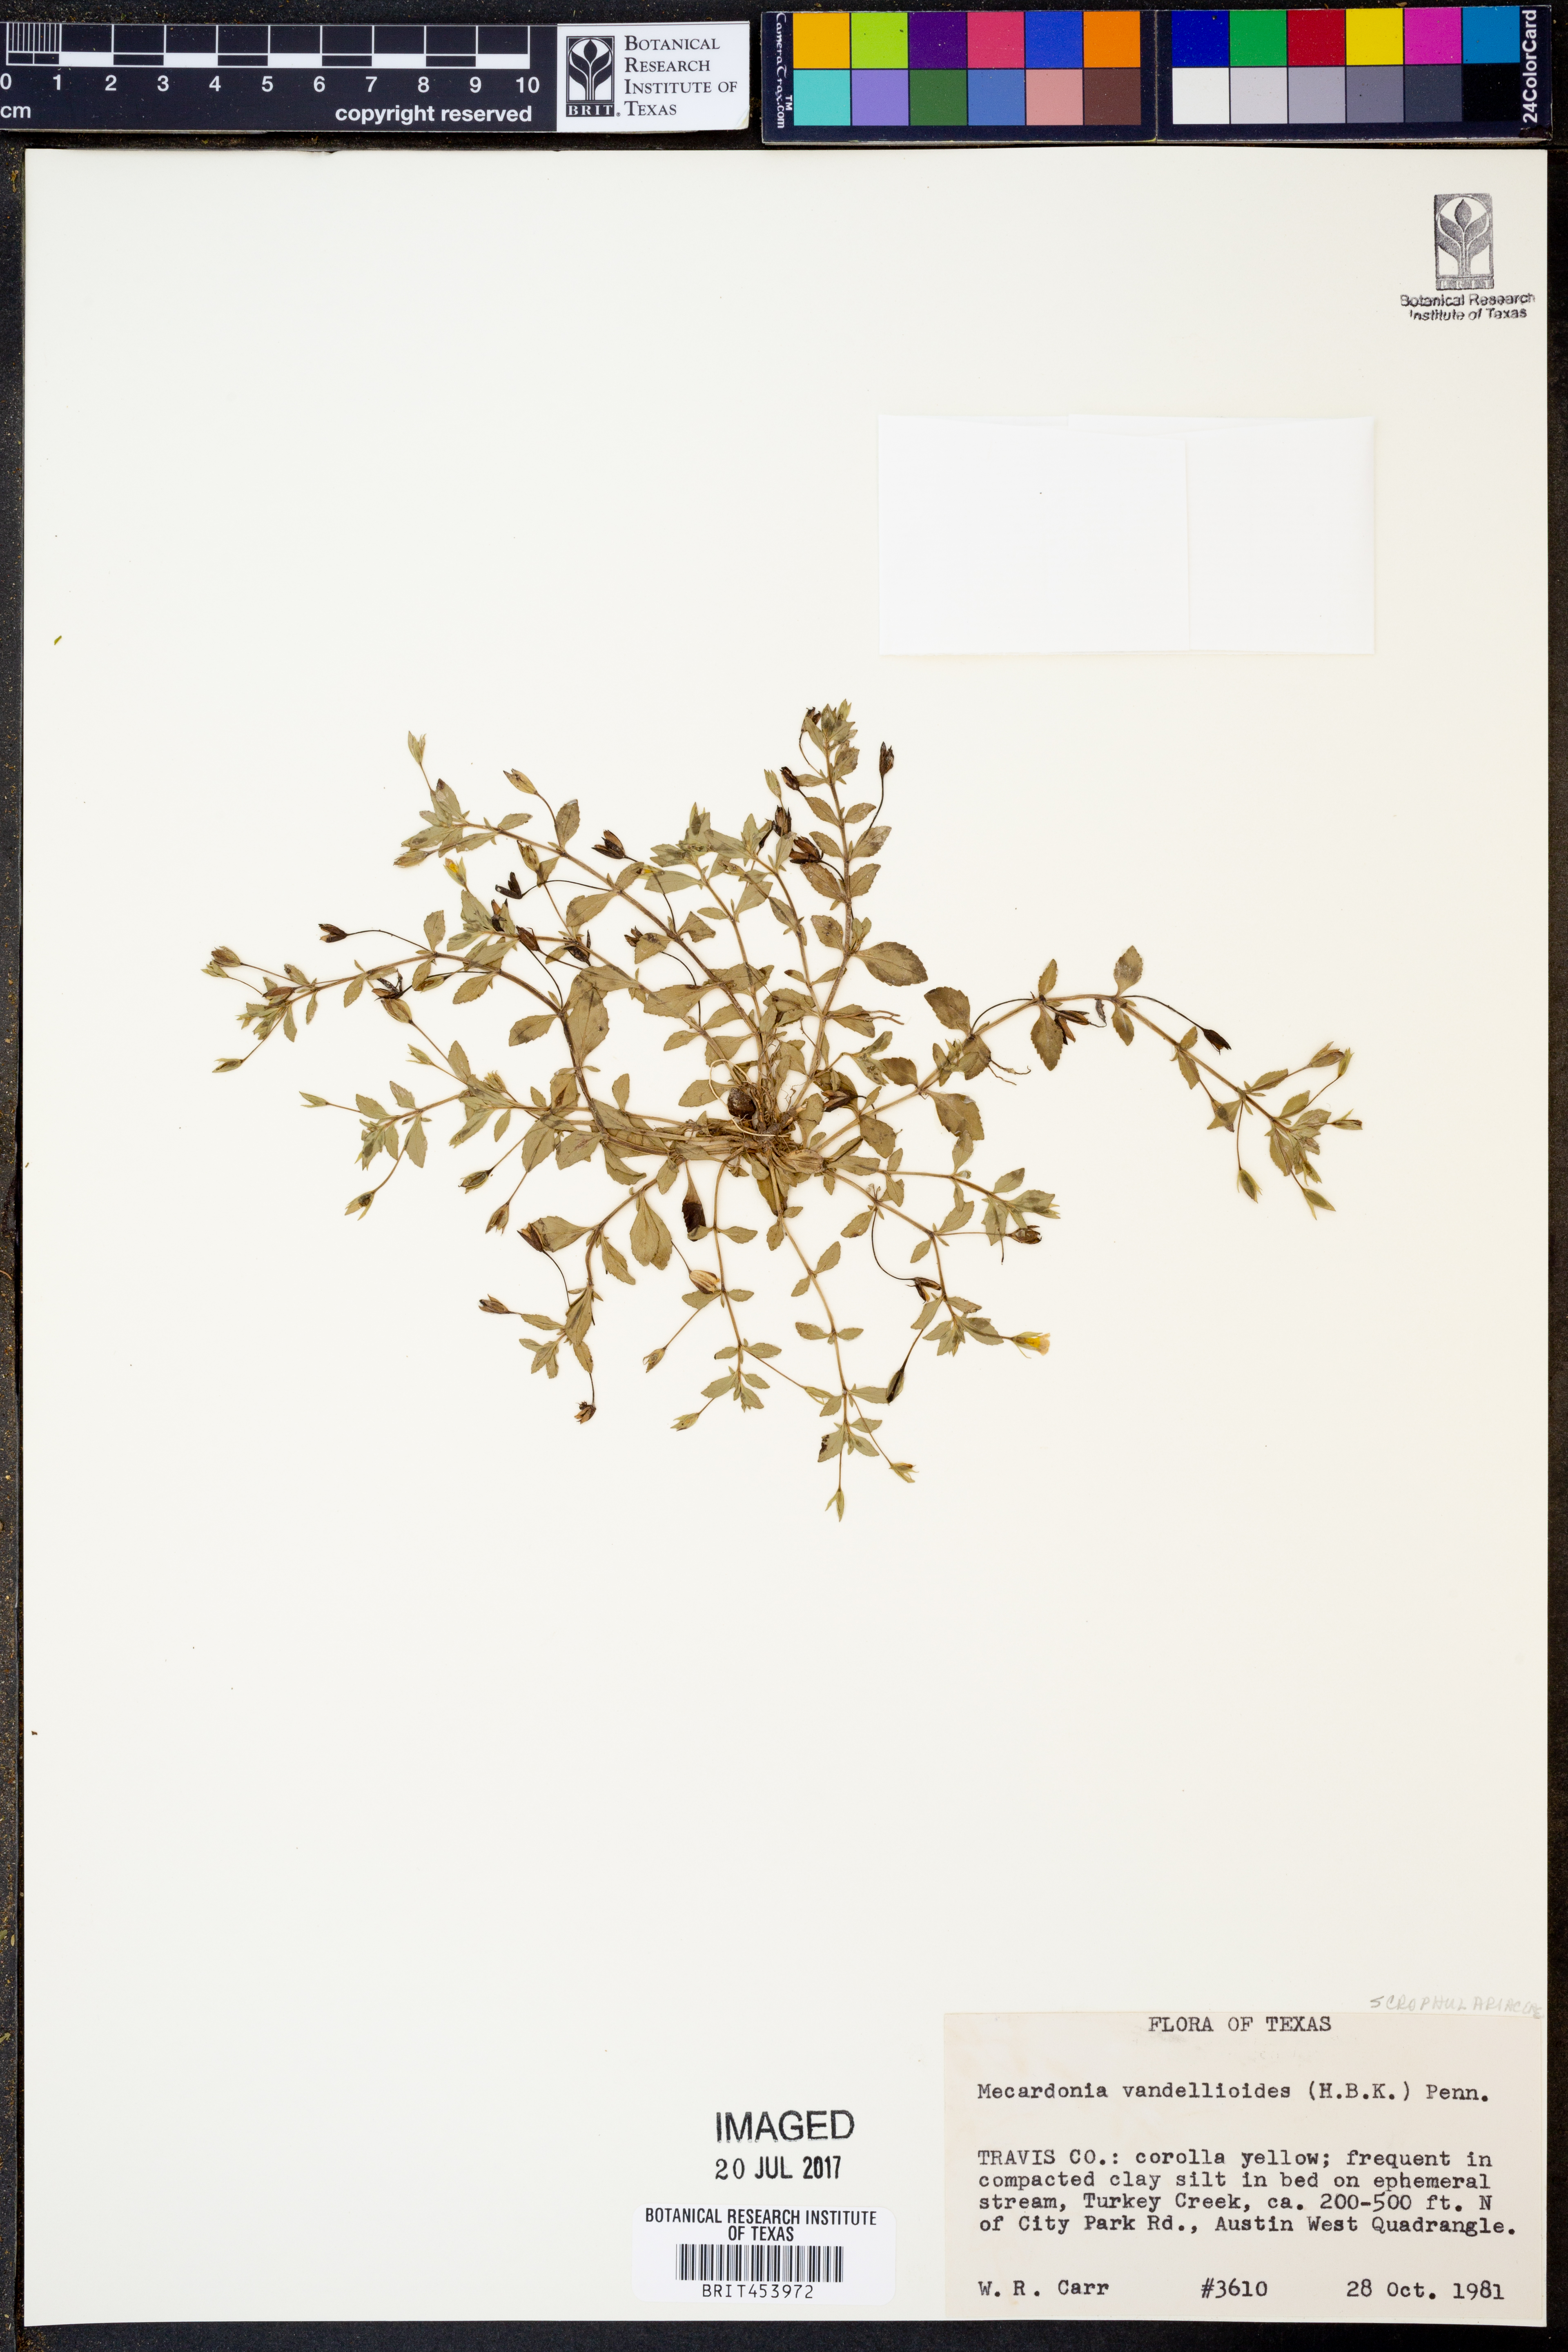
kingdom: Plantae
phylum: Tracheophyta
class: Magnoliopsida
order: Lamiales
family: Plantaginaceae
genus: Mecardonia
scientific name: Mecardonia procumbens
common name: Baby jump-up
